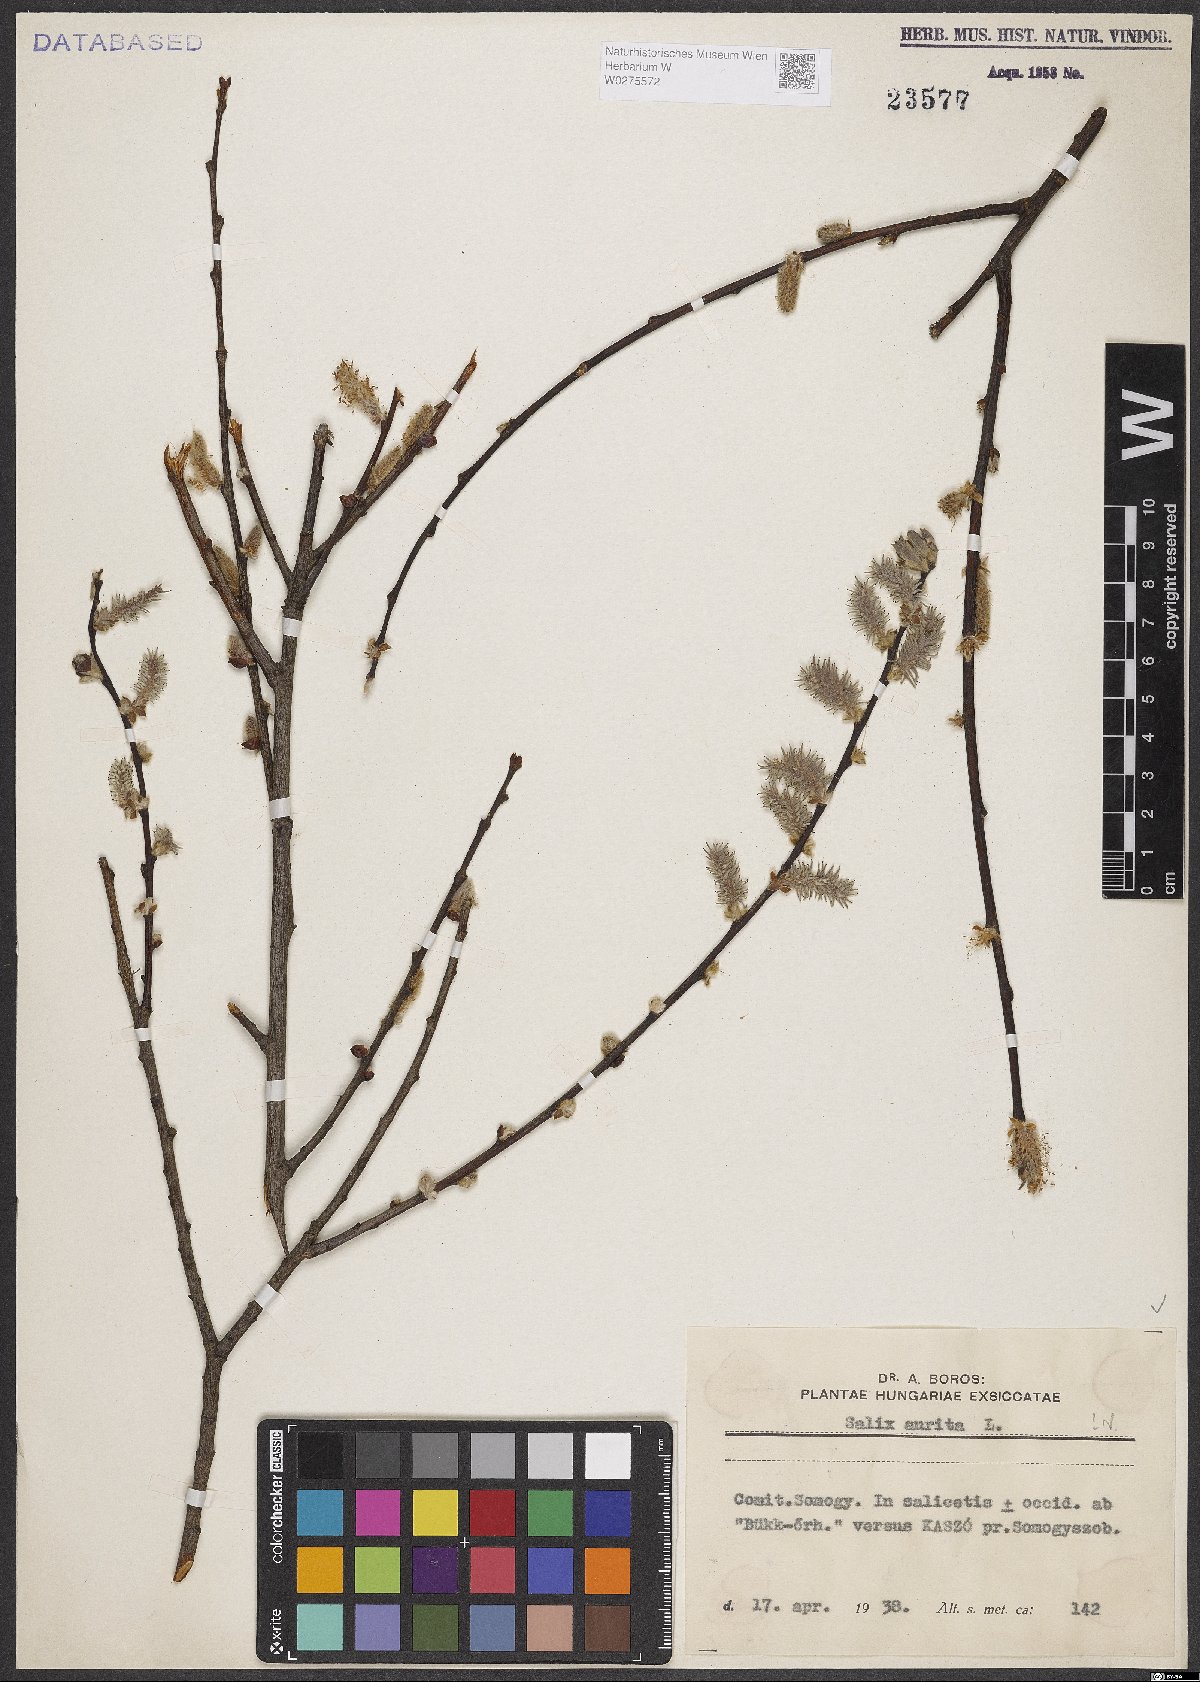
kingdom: Plantae
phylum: Tracheophyta
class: Magnoliopsida
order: Malpighiales
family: Salicaceae
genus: Salix
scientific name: Salix aurita
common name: Eared willow
